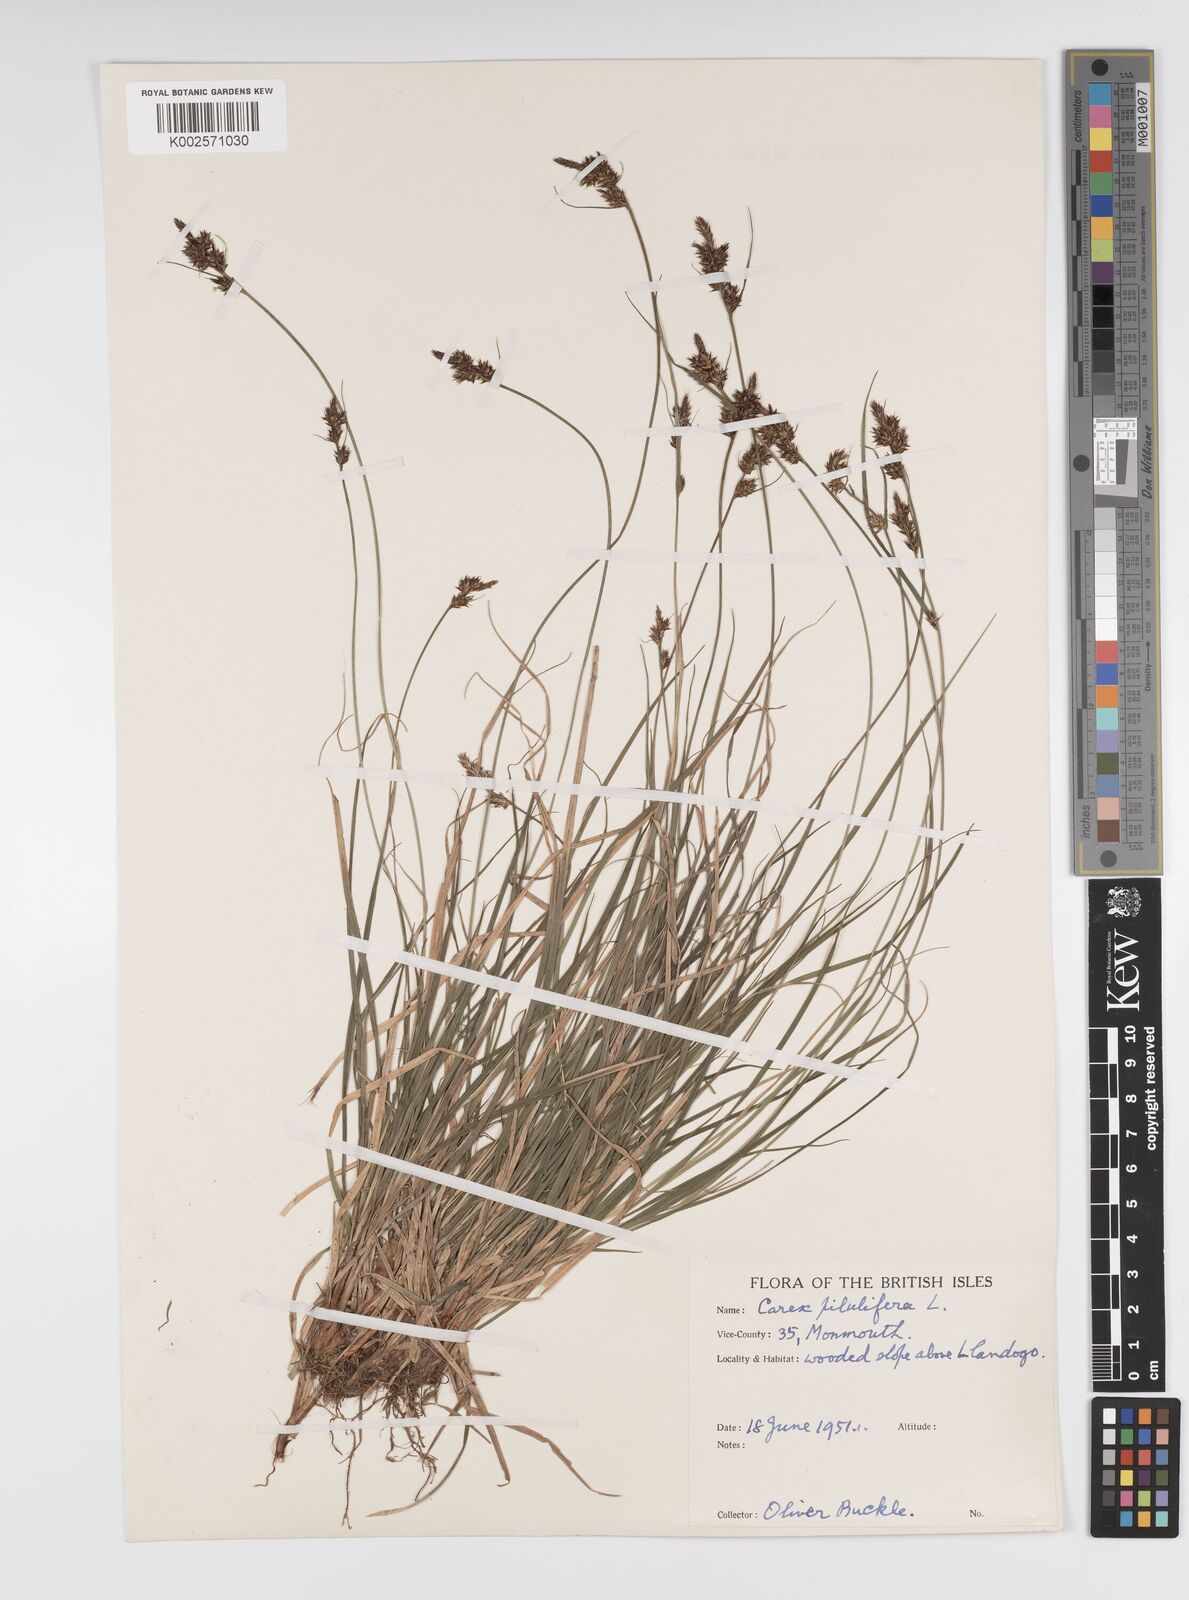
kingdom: Plantae
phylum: Tracheophyta
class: Liliopsida
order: Poales
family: Cyperaceae
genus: Carex
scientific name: Carex pilulifera
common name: Pill sedge
